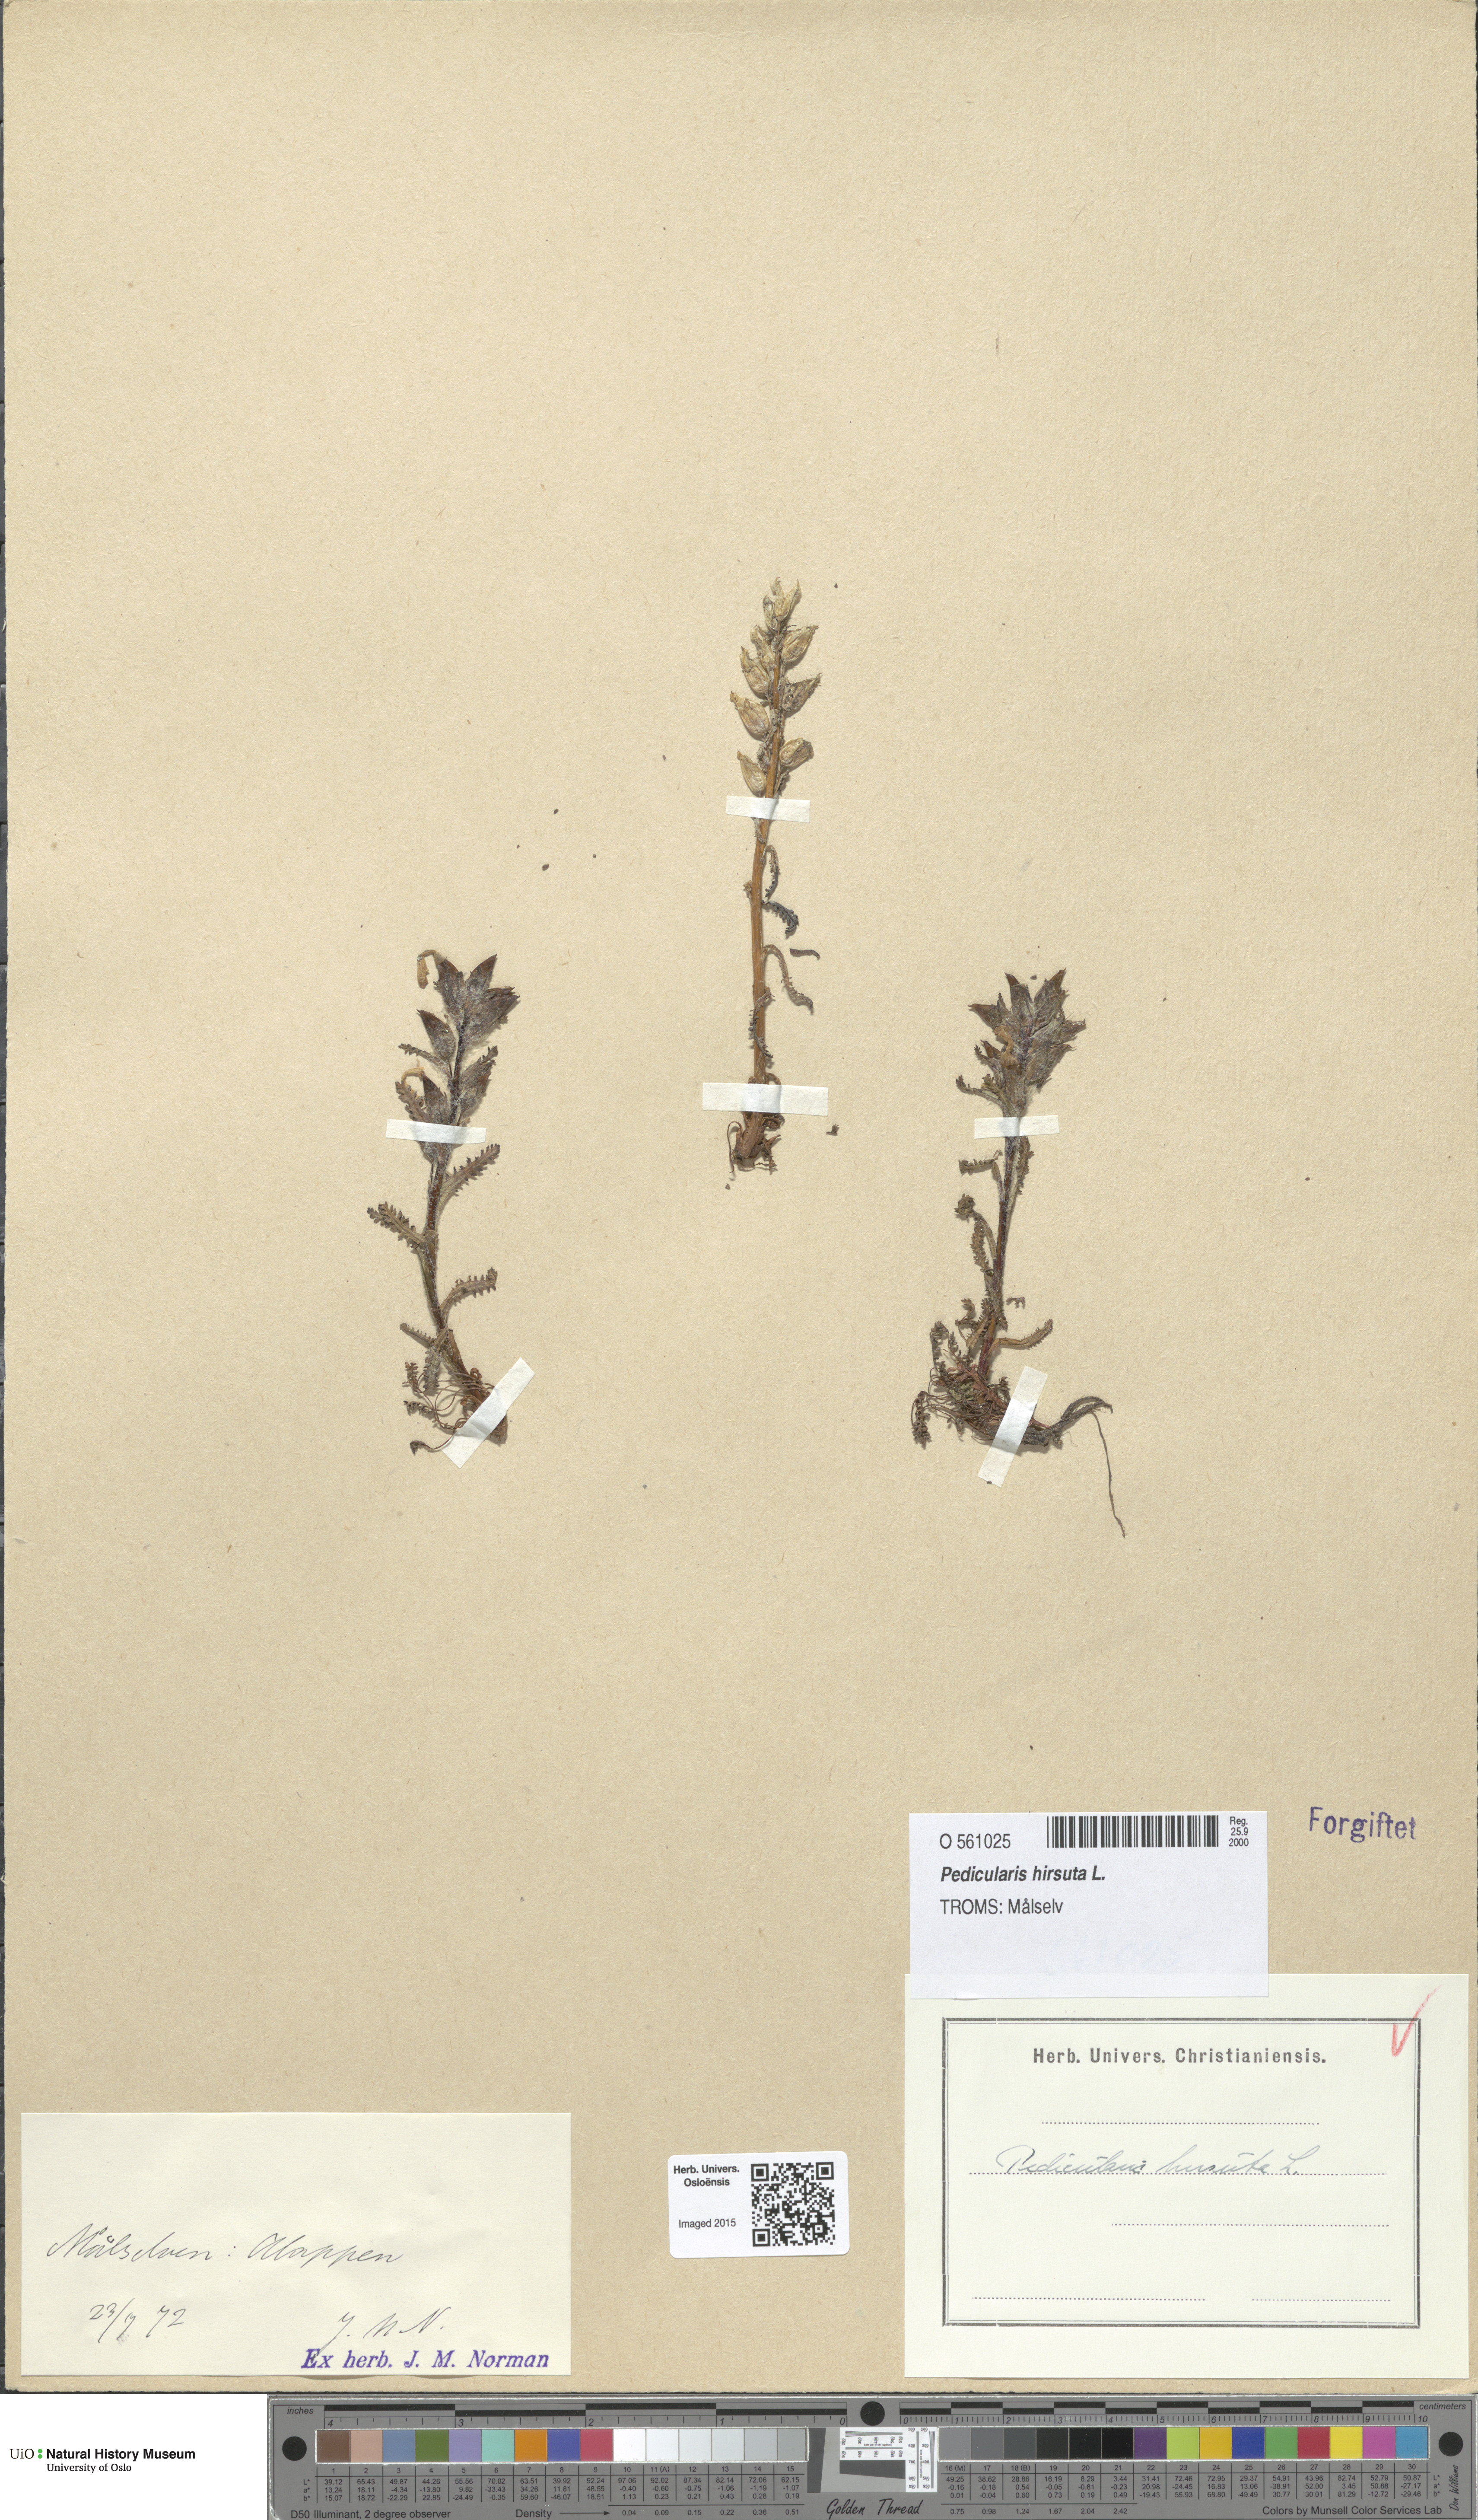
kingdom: Plantae
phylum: Tracheophyta
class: Magnoliopsida
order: Lamiales
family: Orobanchaceae
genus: Pedicularis
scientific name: Pedicularis hirsuta
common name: Hairy lousewort
